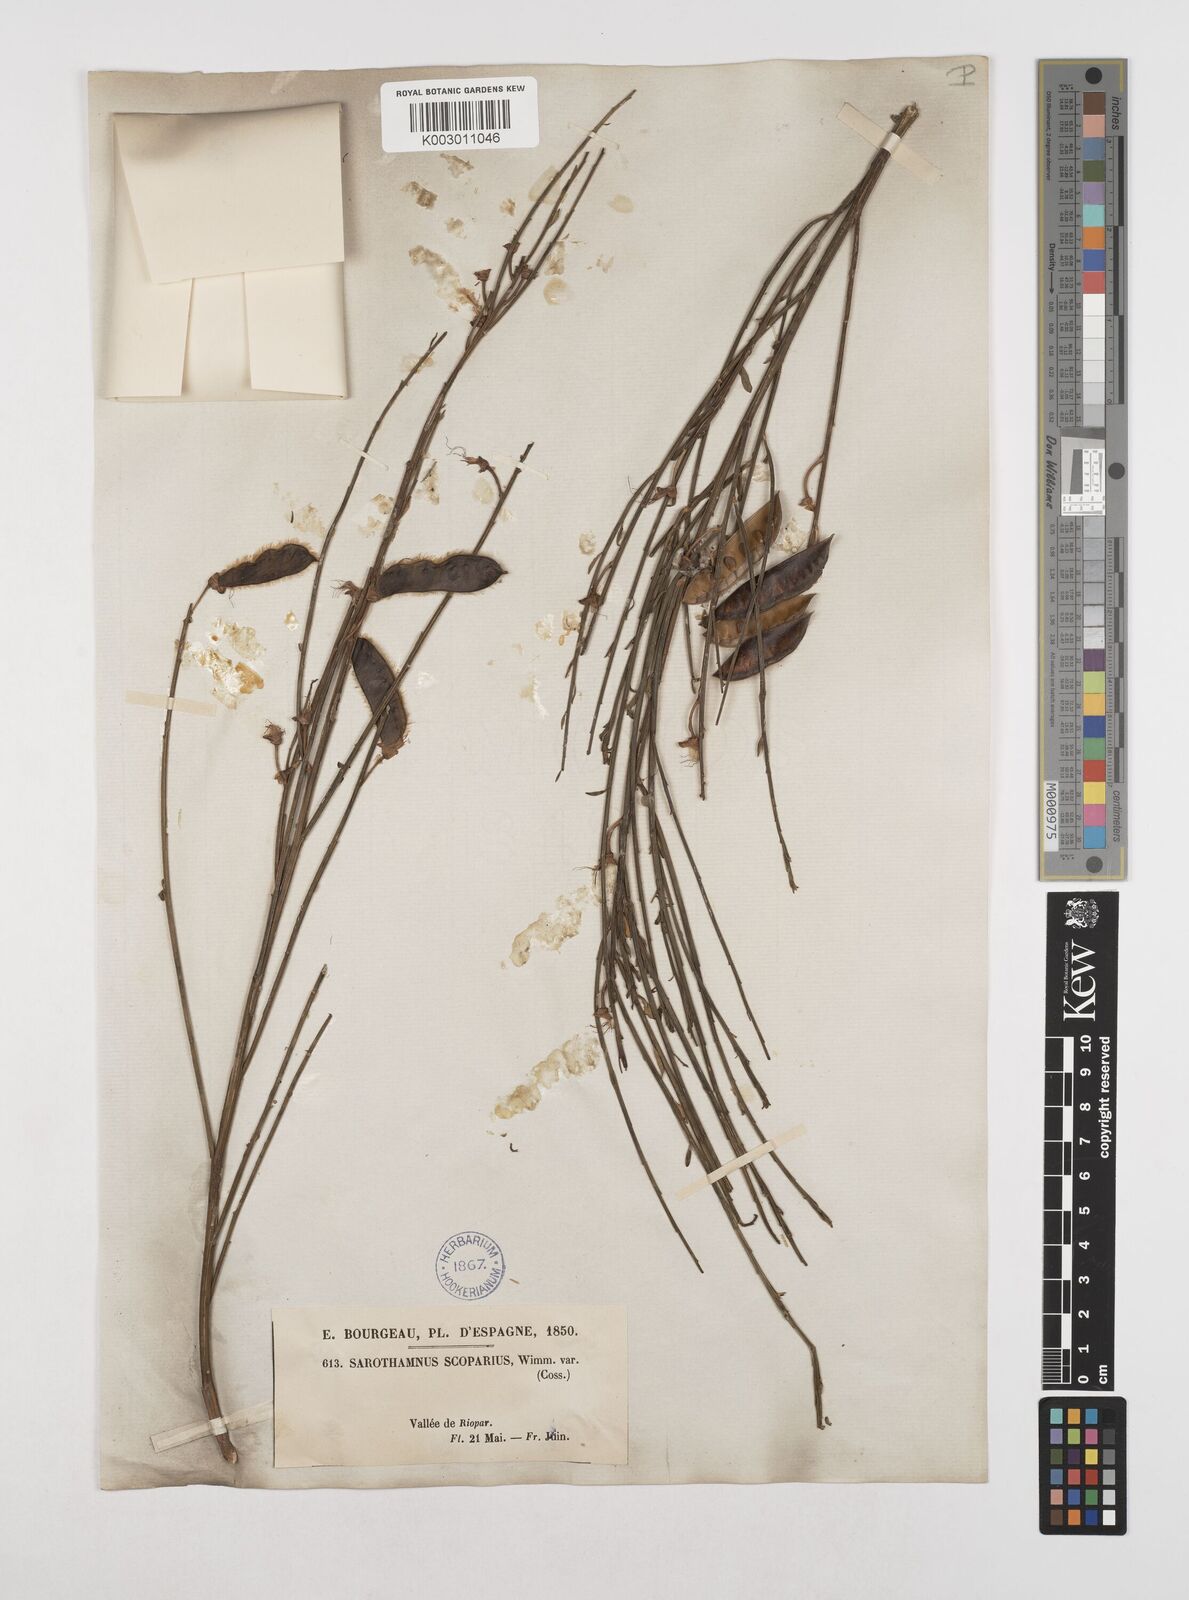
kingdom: Plantae
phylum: Tracheophyta
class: Magnoliopsida
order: Fabales
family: Fabaceae
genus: Cytisus
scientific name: Cytisus scoparius
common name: Scotch broom
